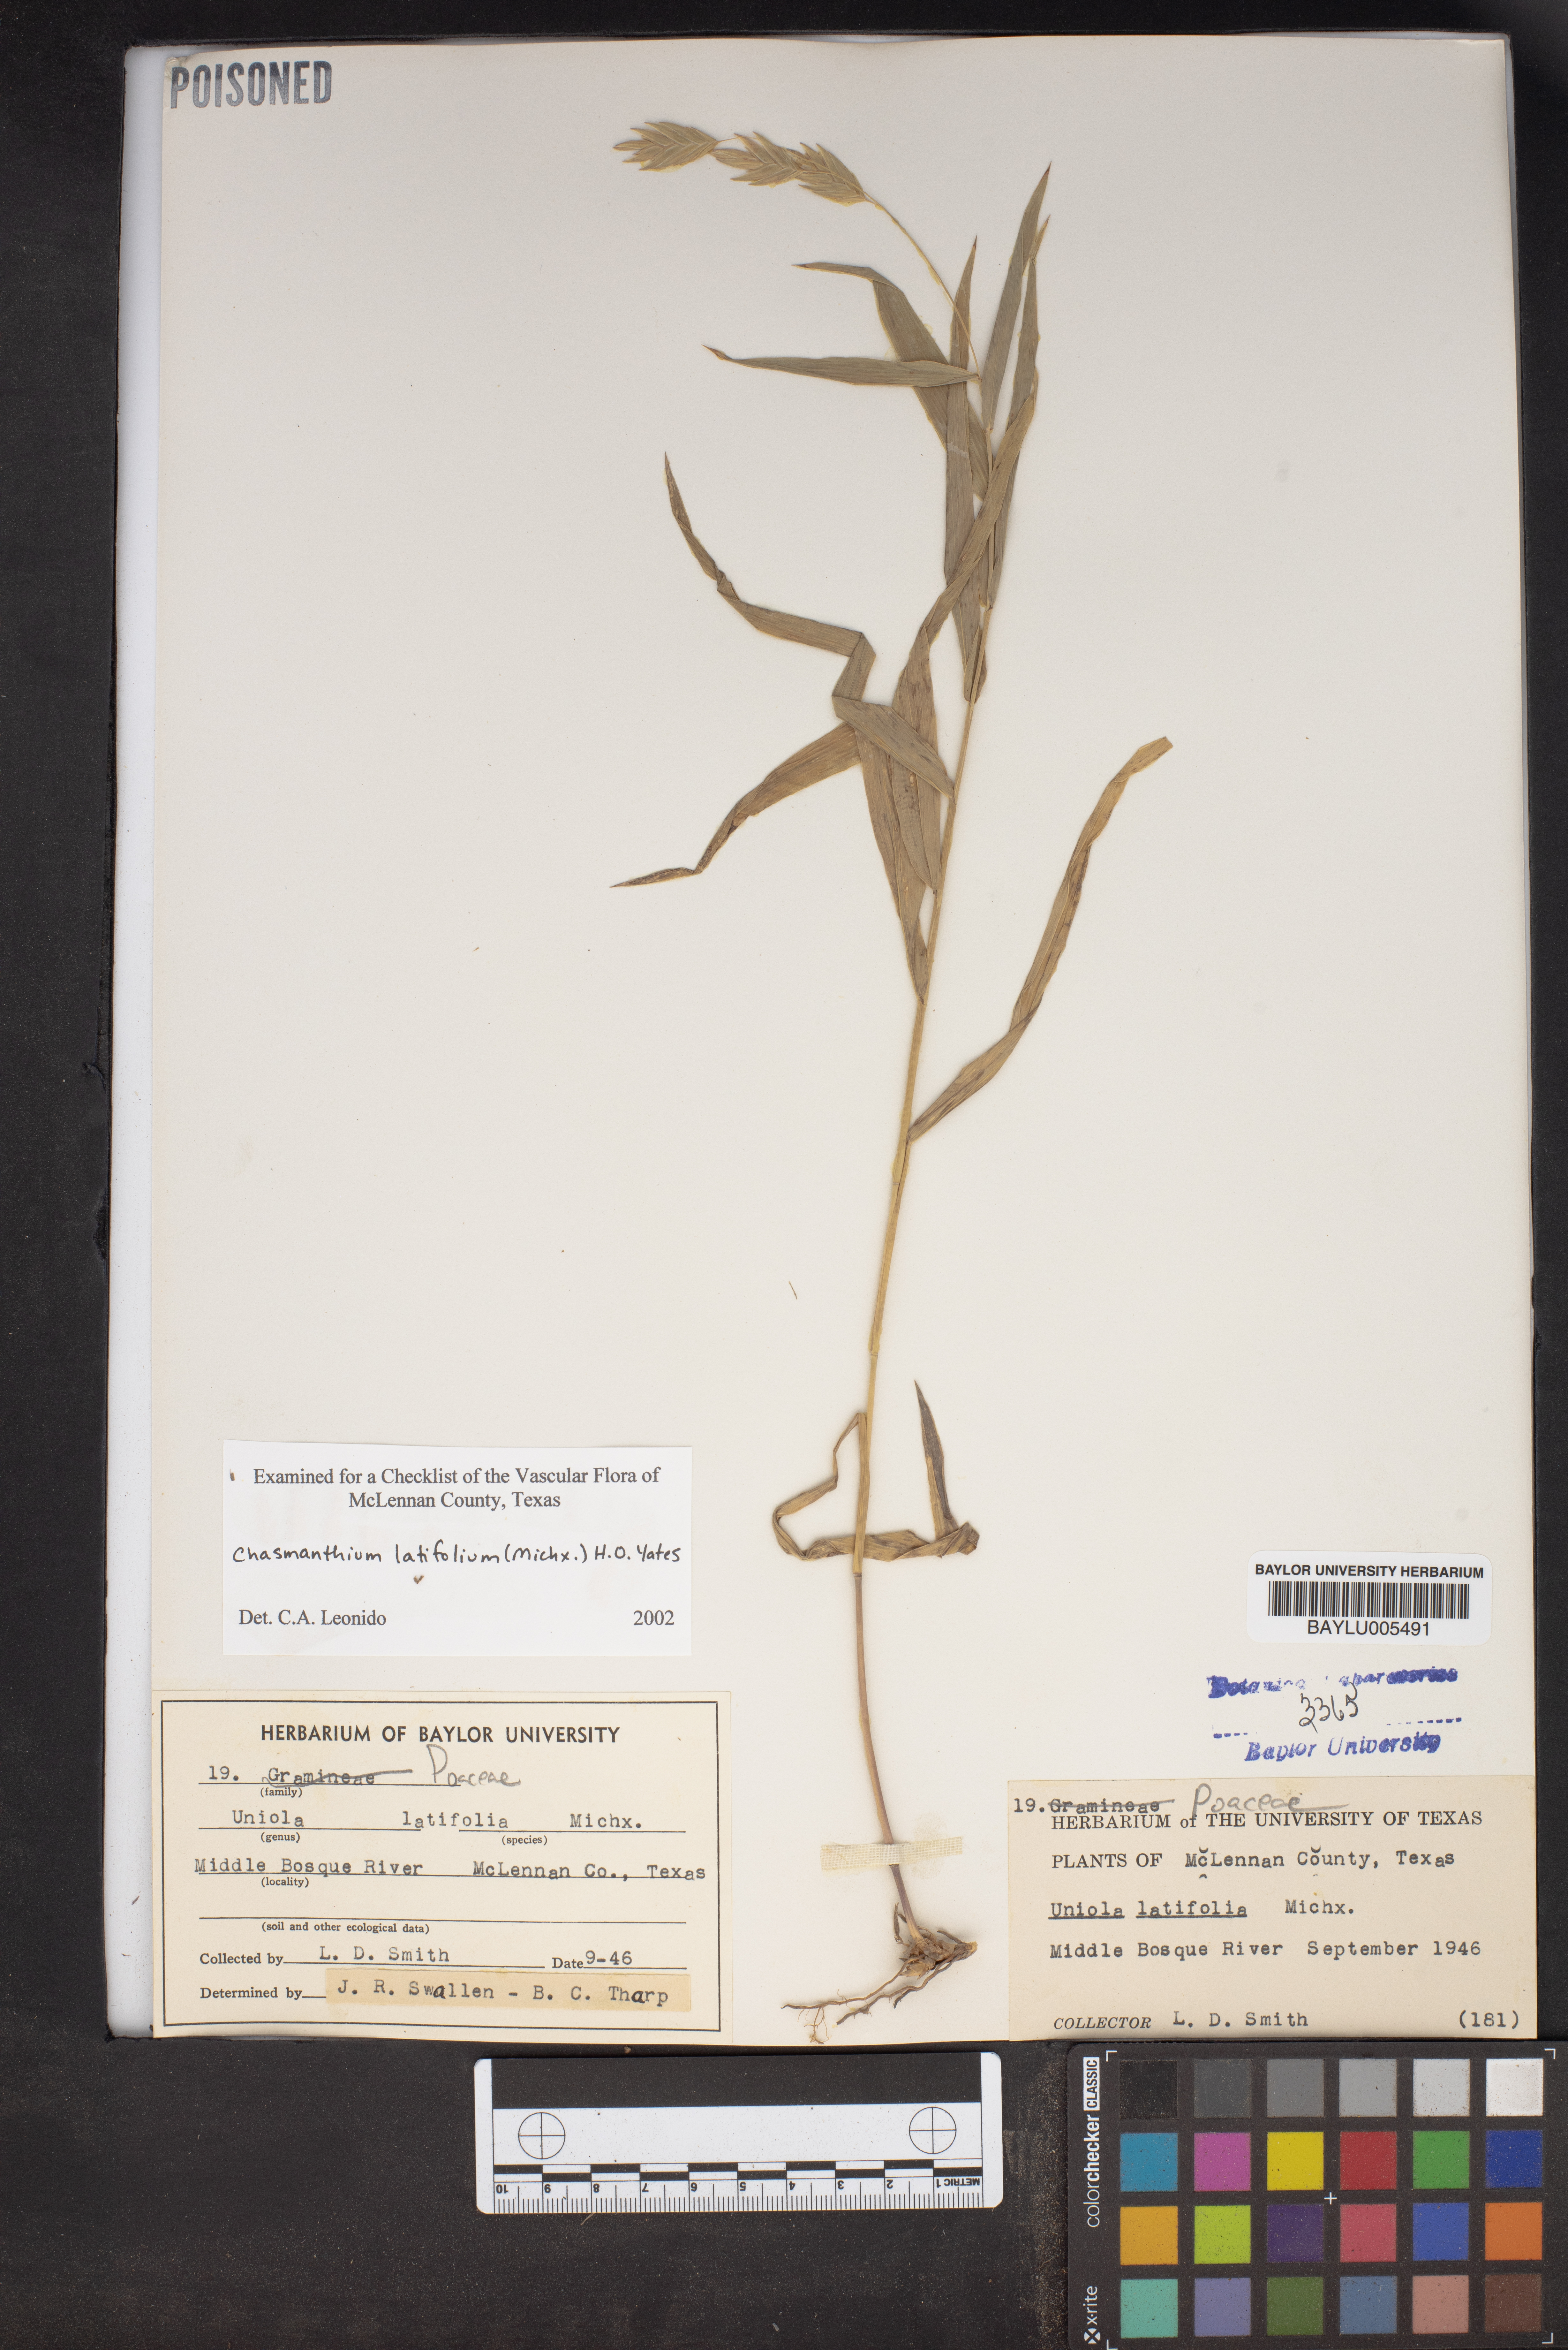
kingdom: Plantae
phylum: Tracheophyta
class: Liliopsida
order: Poales
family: Poaceae
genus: Chasmanthium
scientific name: Chasmanthium latifolium
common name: Broad-leaved chasmanthium
